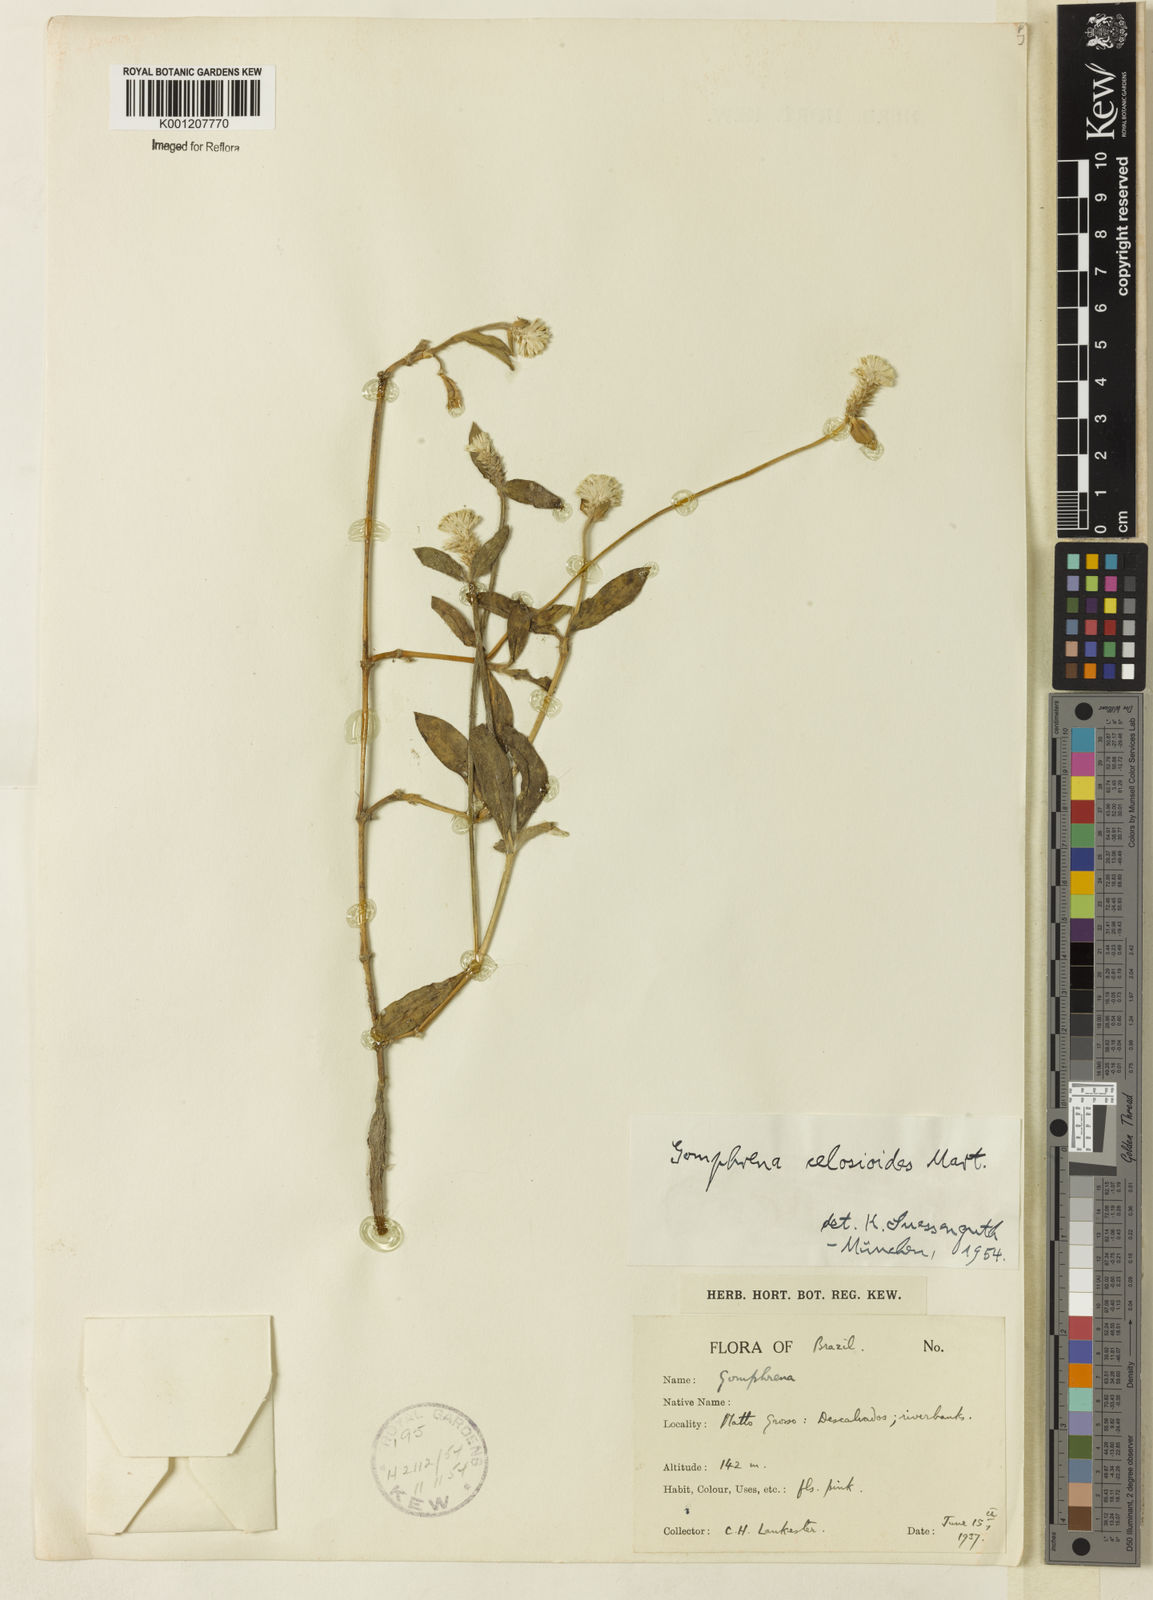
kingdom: Plantae
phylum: Tracheophyta
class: Magnoliopsida
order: Caryophyllales
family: Amaranthaceae
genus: Gomphrena
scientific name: Gomphrena celosioides
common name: Gomphrena-weed
